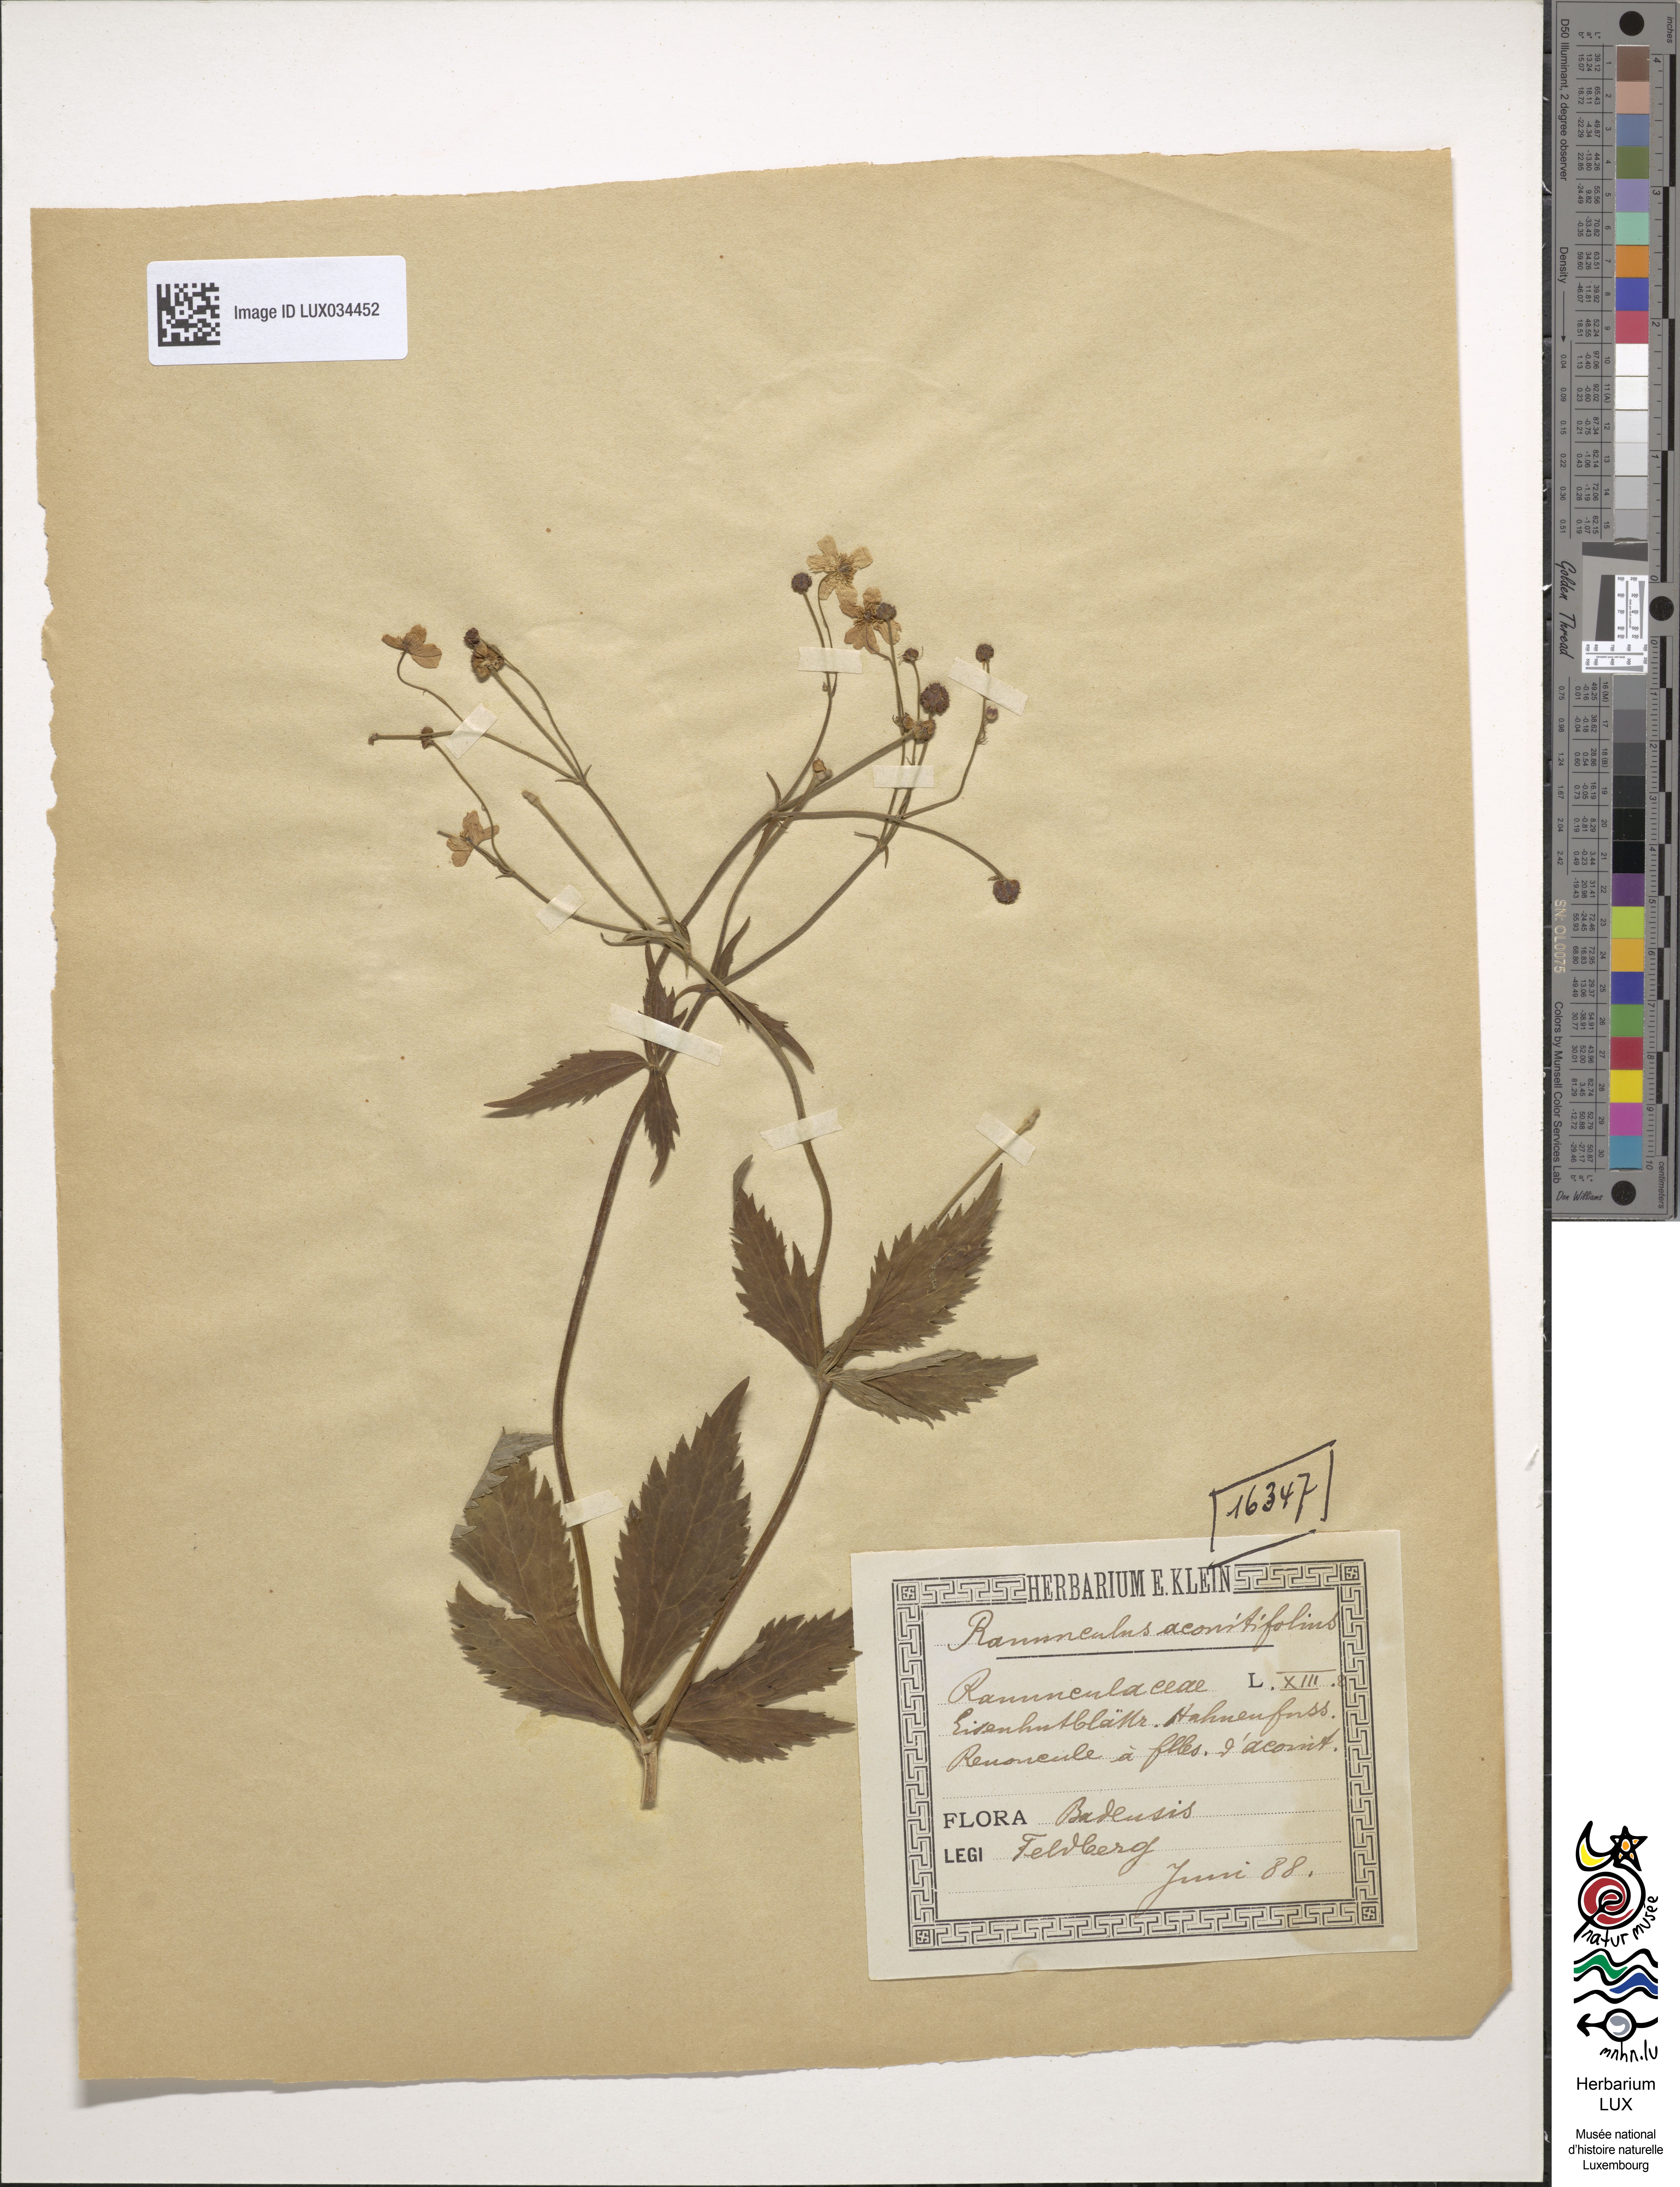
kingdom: Plantae
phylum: Tracheophyta
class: Magnoliopsida
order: Ranunculales
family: Ranunculaceae
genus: Ranunculus
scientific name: Ranunculus aconitifolius
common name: Aconite-leaved buttercup
